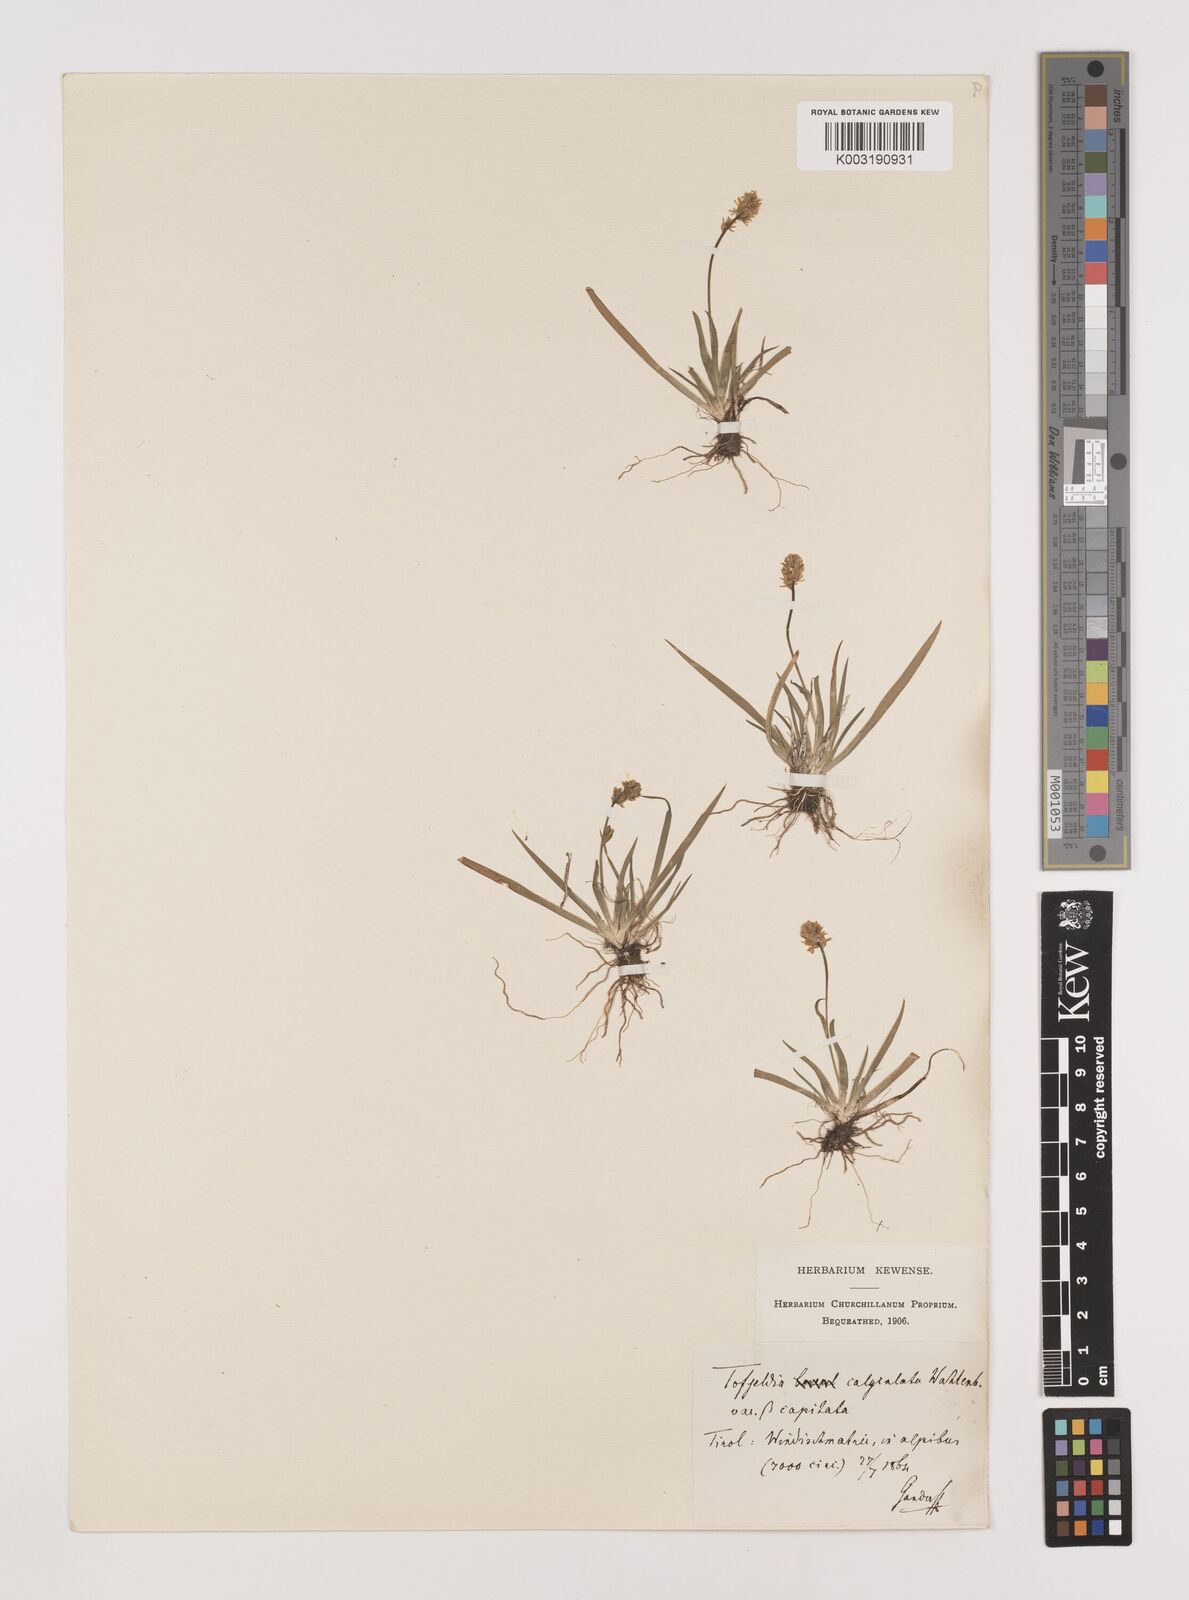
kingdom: Plantae
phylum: Tracheophyta
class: Liliopsida
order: Alismatales
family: Tofieldiaceae
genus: Tofieldia
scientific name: Tofieldia calyculata
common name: German-asphodel
